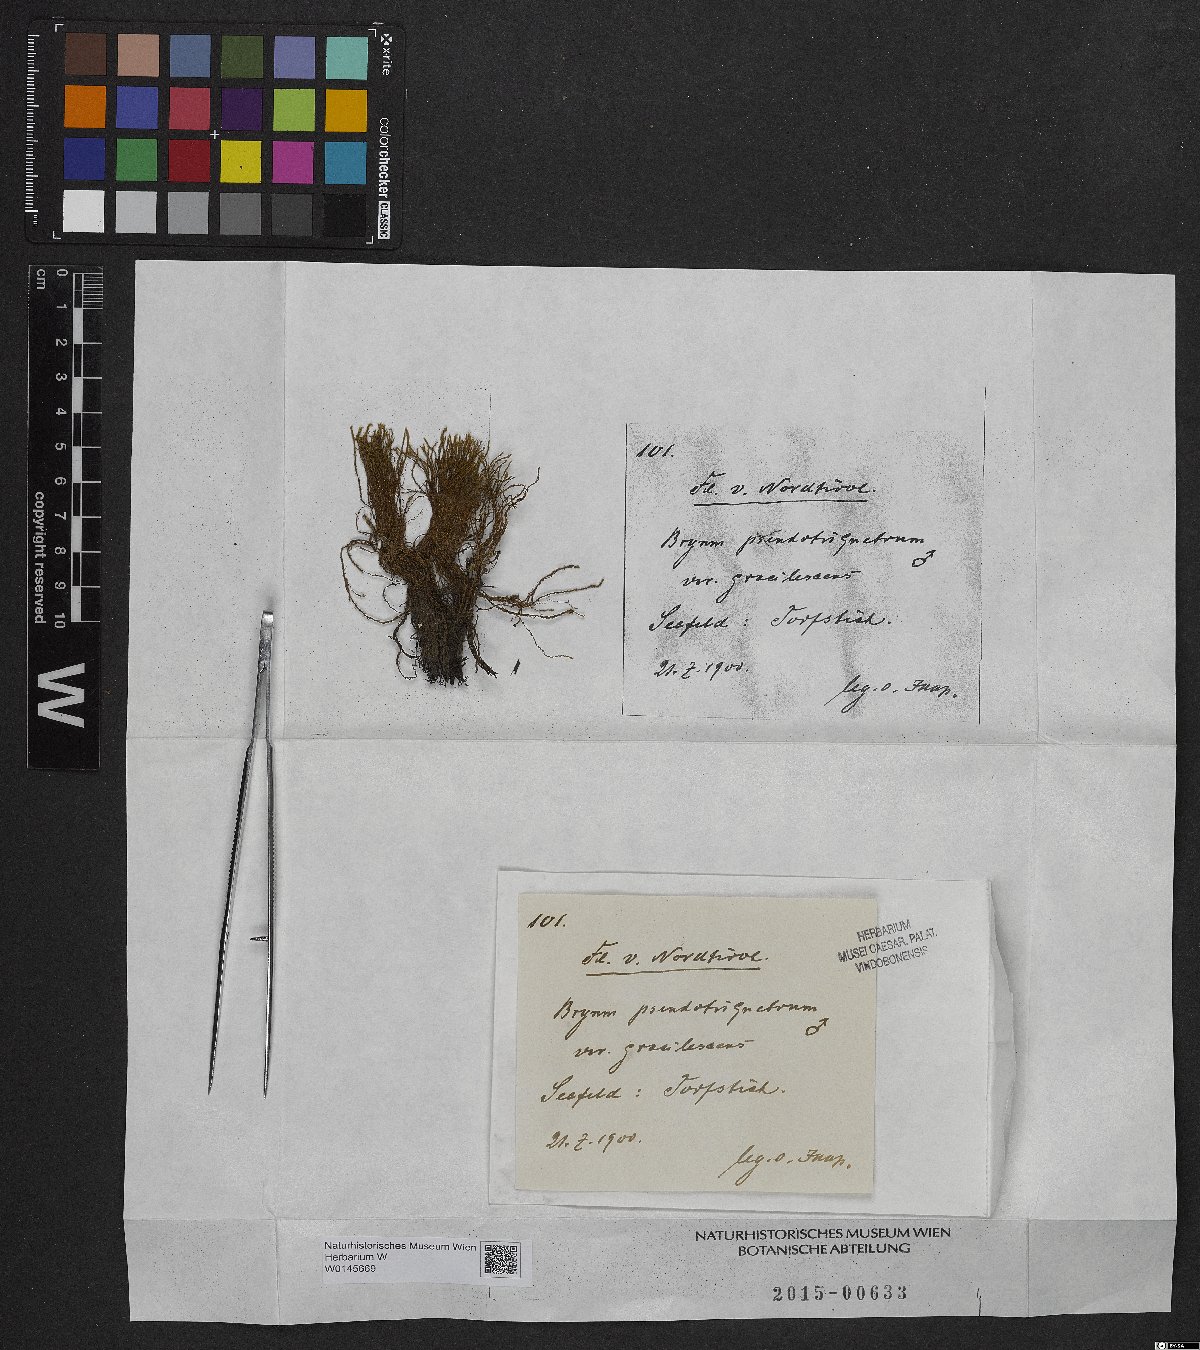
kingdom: Plantae
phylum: Bryophyta
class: Bryopsida
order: Bryales
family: Bryaceae
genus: Ptychostomum
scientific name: Ptychostomum pseudotriquetrum
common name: Long-leaved thread moss
